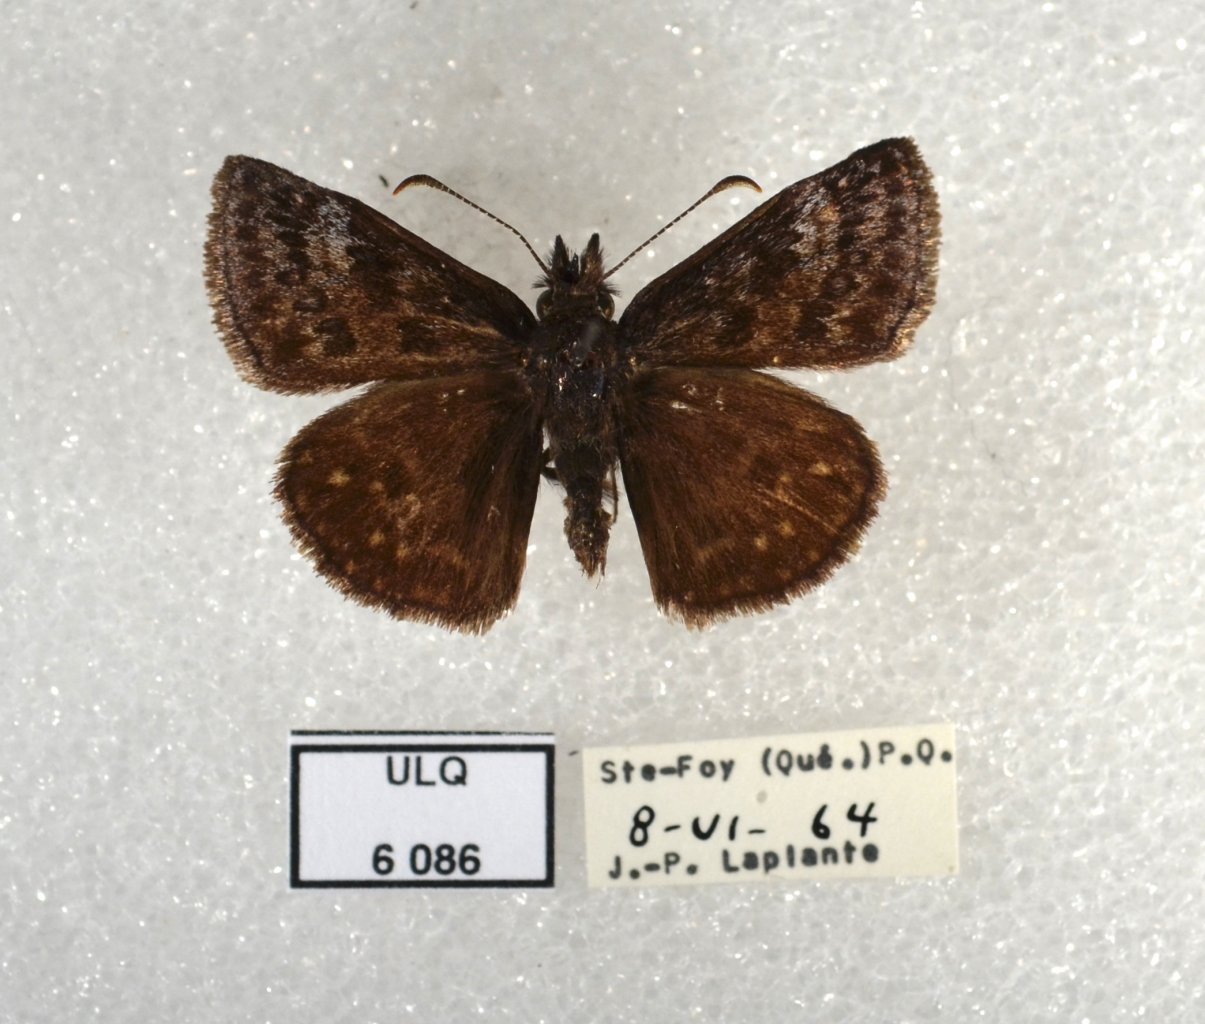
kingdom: Animalia
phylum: Arthropoda
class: Insecta
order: Lepidoptera
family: Hesperiidae
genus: Erynnis
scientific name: Erynnis icelus
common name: Dreamy Duskywing
